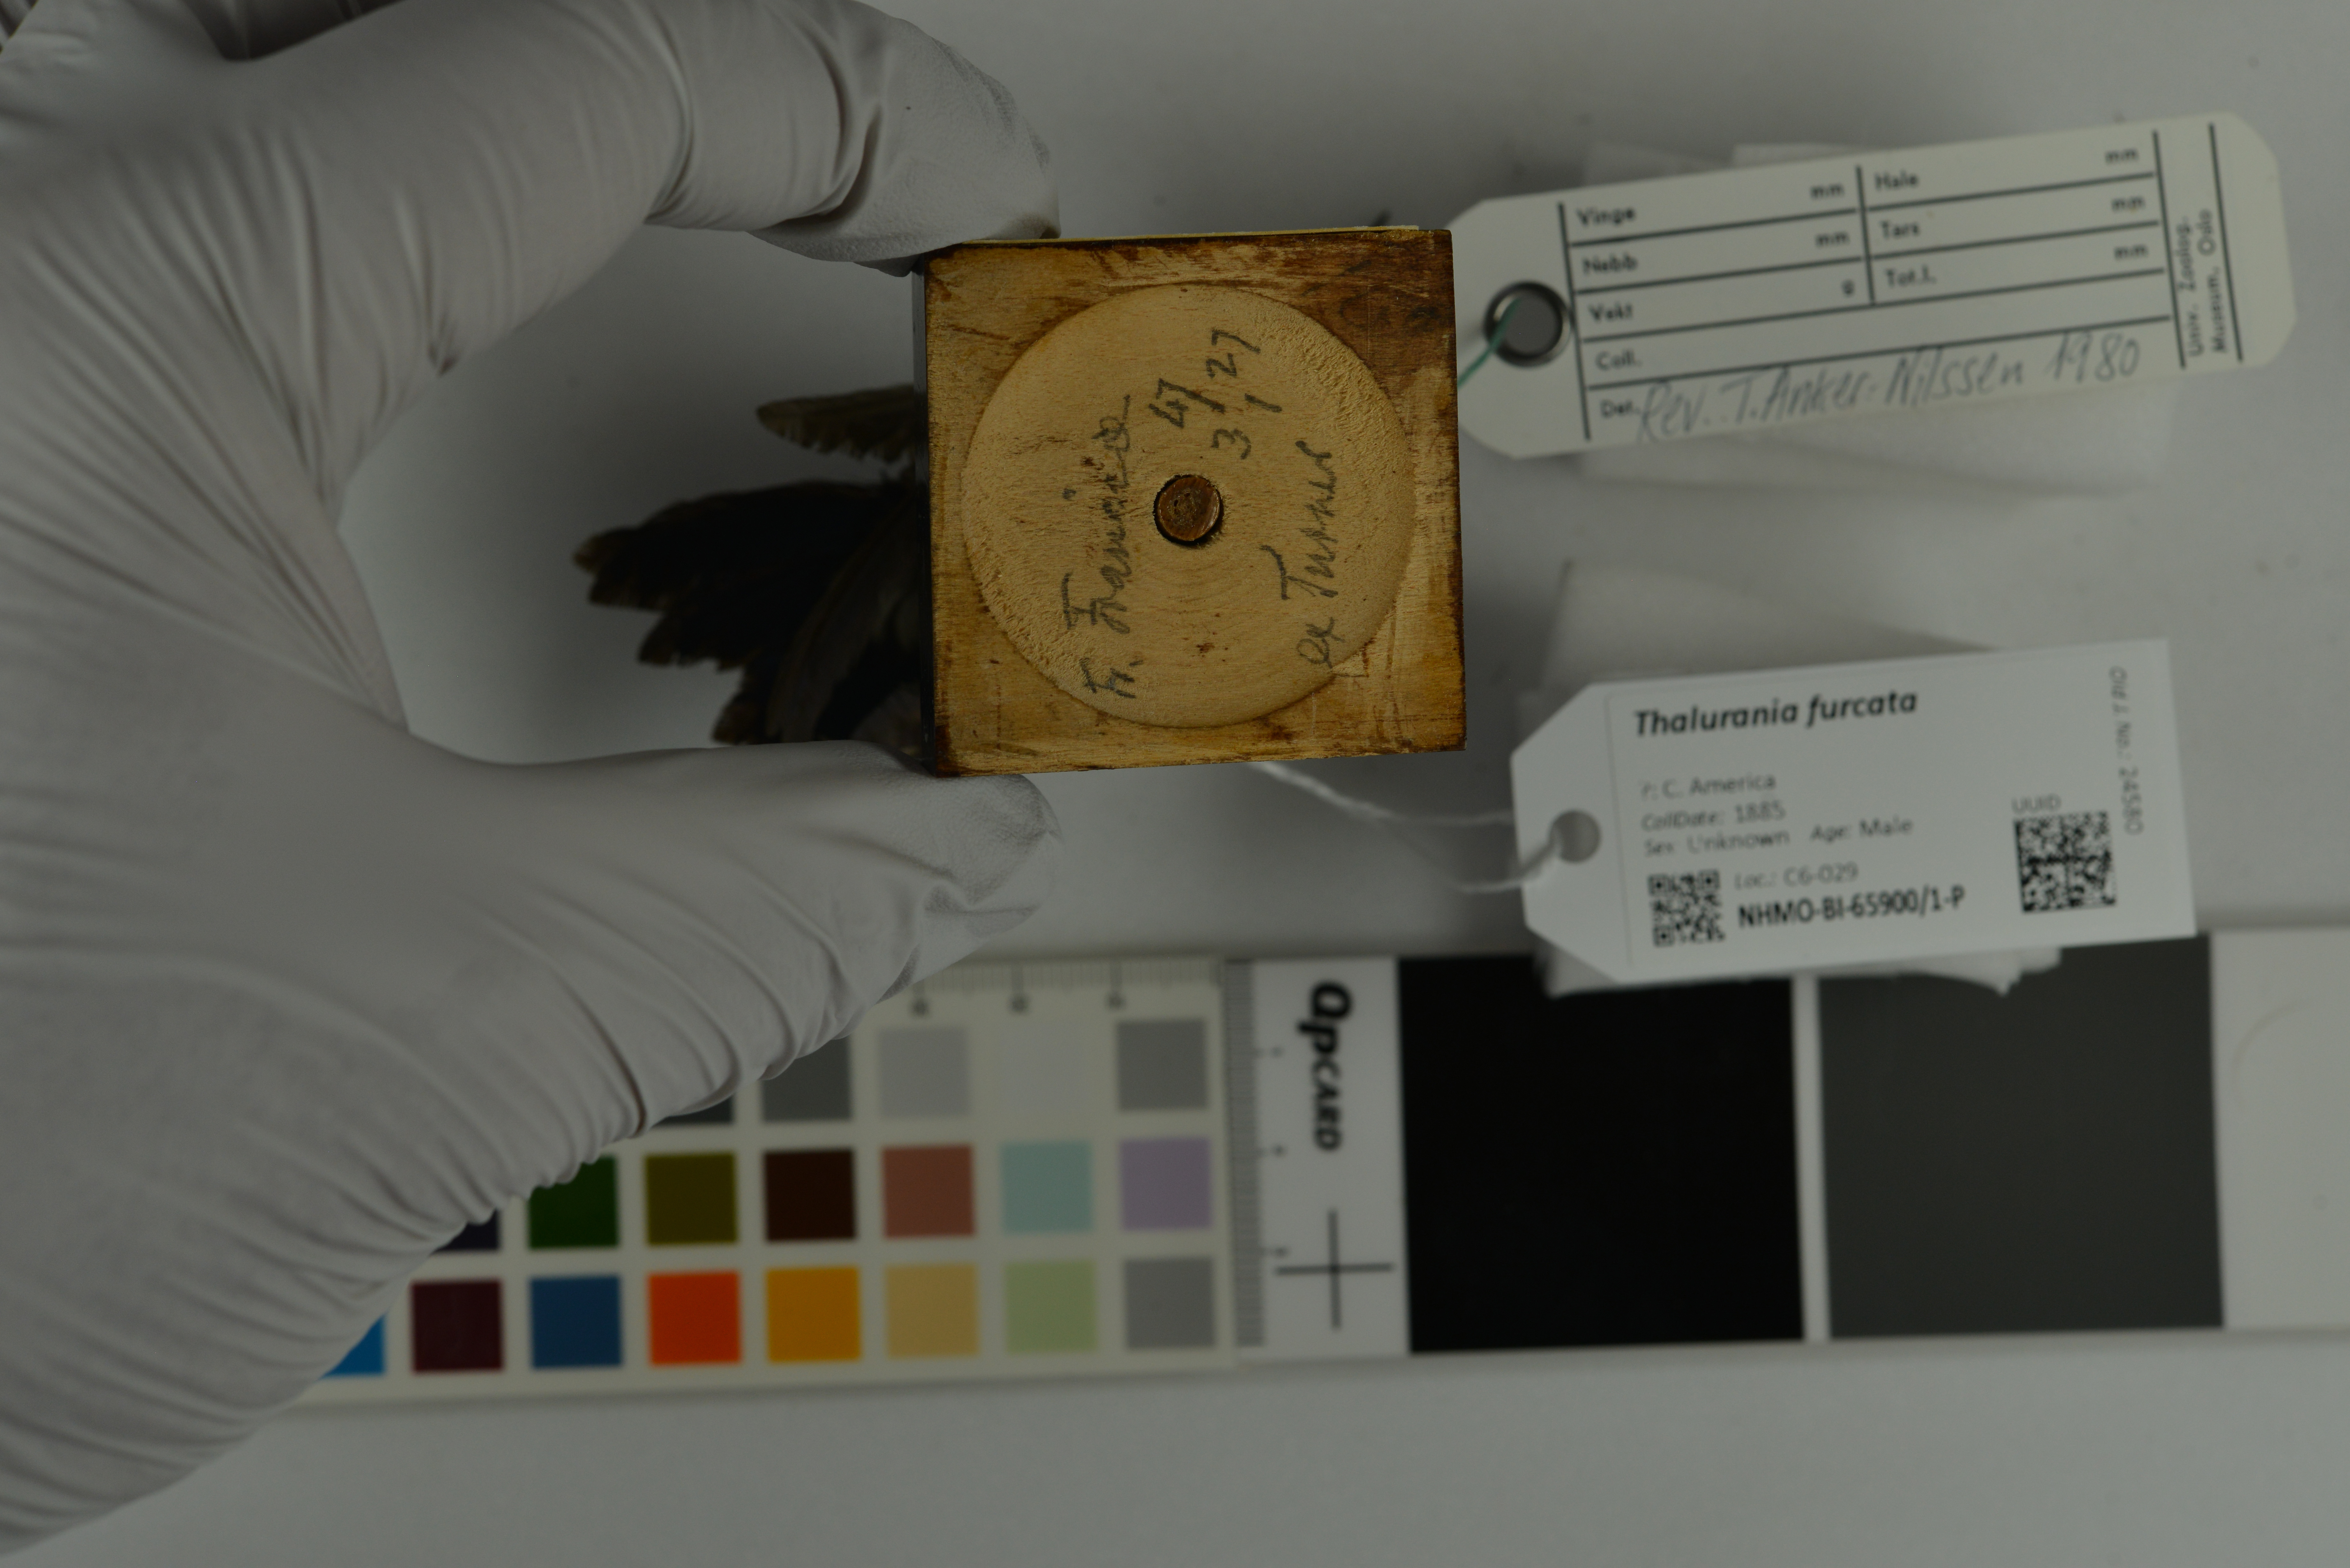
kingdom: Animalia
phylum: Chordata
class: Aves
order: Apodiformes
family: Trochilidae
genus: Thalurania
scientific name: Thalurania furcata
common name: Fork-tailed woodnymph
